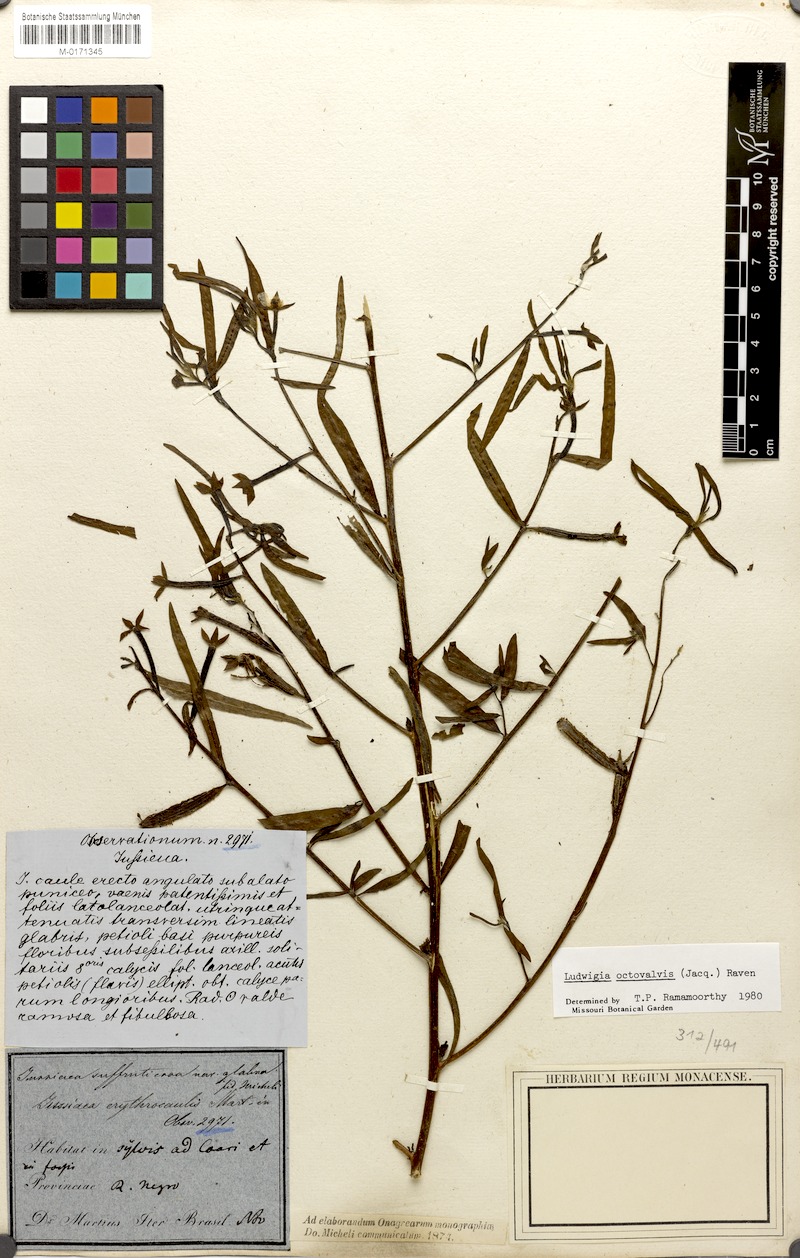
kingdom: Plantae
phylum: Tracheophyta
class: Magnoliopsida
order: Myrtales
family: Onagraceae
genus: Ludwigia
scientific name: Ludwigia octovalvis
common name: Water-primrose
